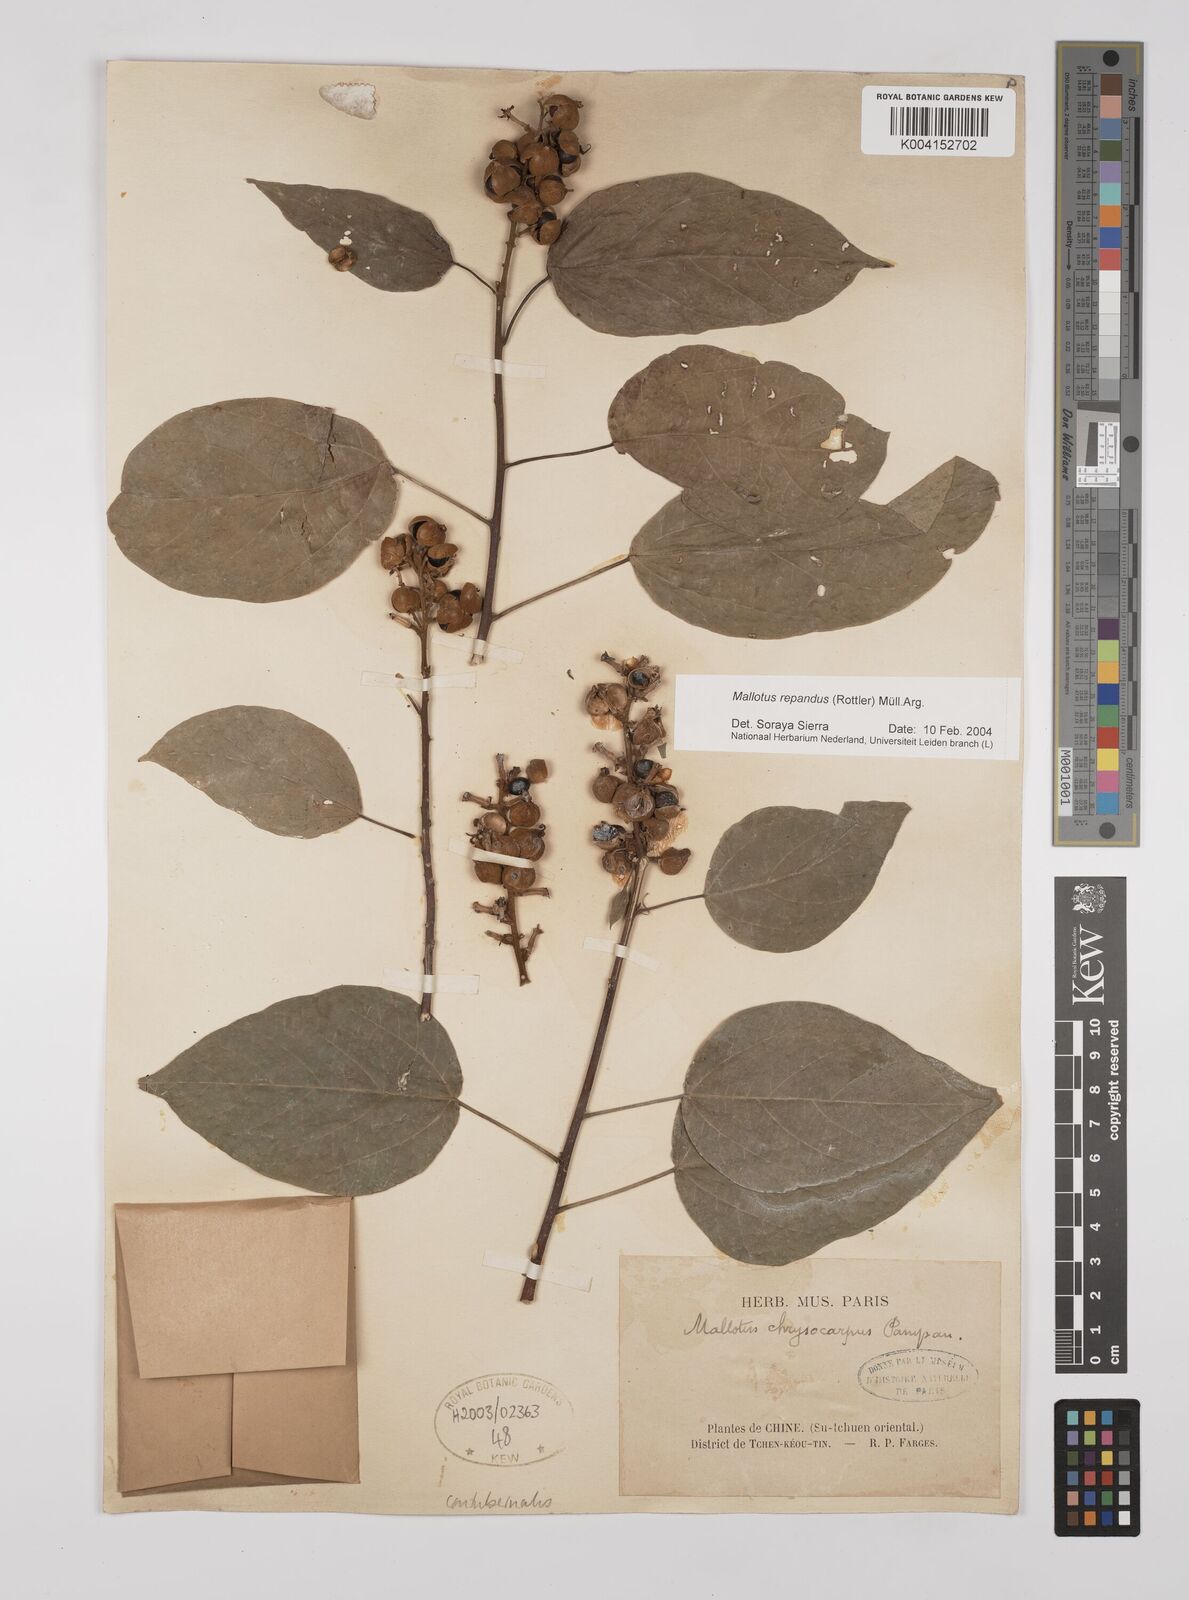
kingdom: Plantae
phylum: Tracheophyta
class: Magnoliopsida
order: Malpighiales
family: Euphorbiaceae
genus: Mallotus
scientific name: Mallotus repandus
